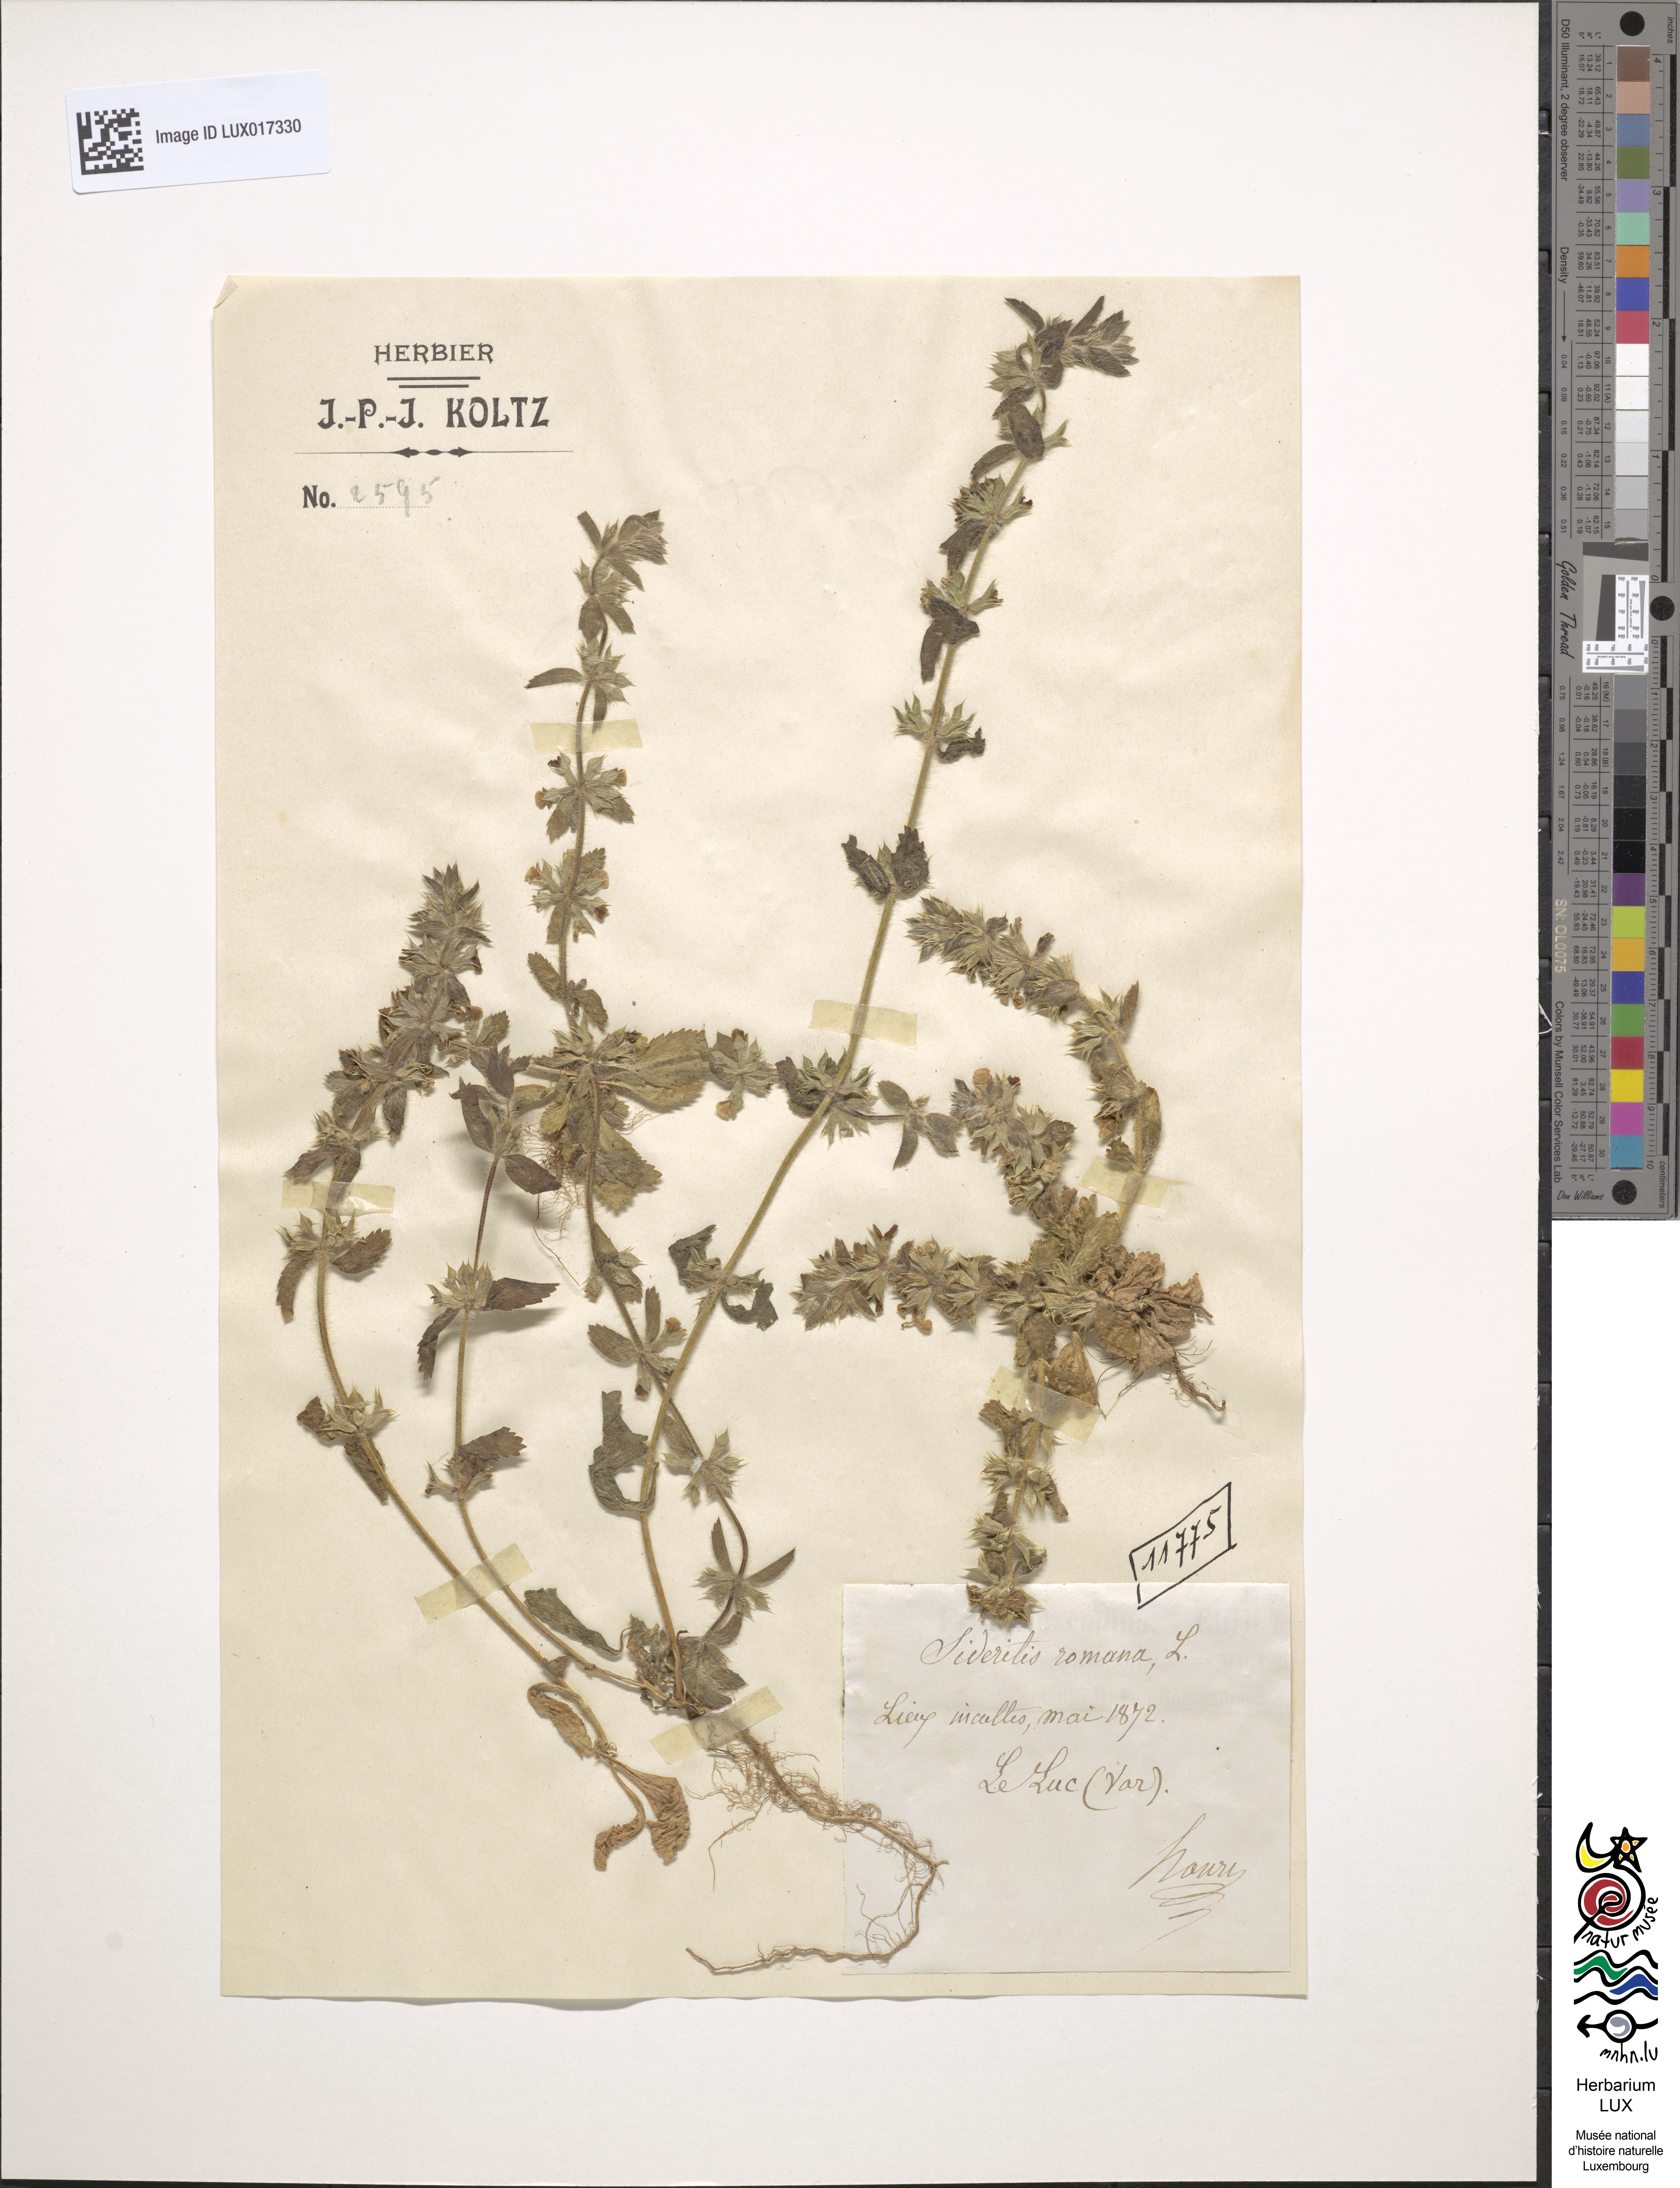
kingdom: Plantae
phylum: Tracheophyta
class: Magnoliopsida
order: Lamiales
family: Lamiaceae
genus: Sideritis
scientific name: Sideritis romana
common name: Simplebeak ironwort
